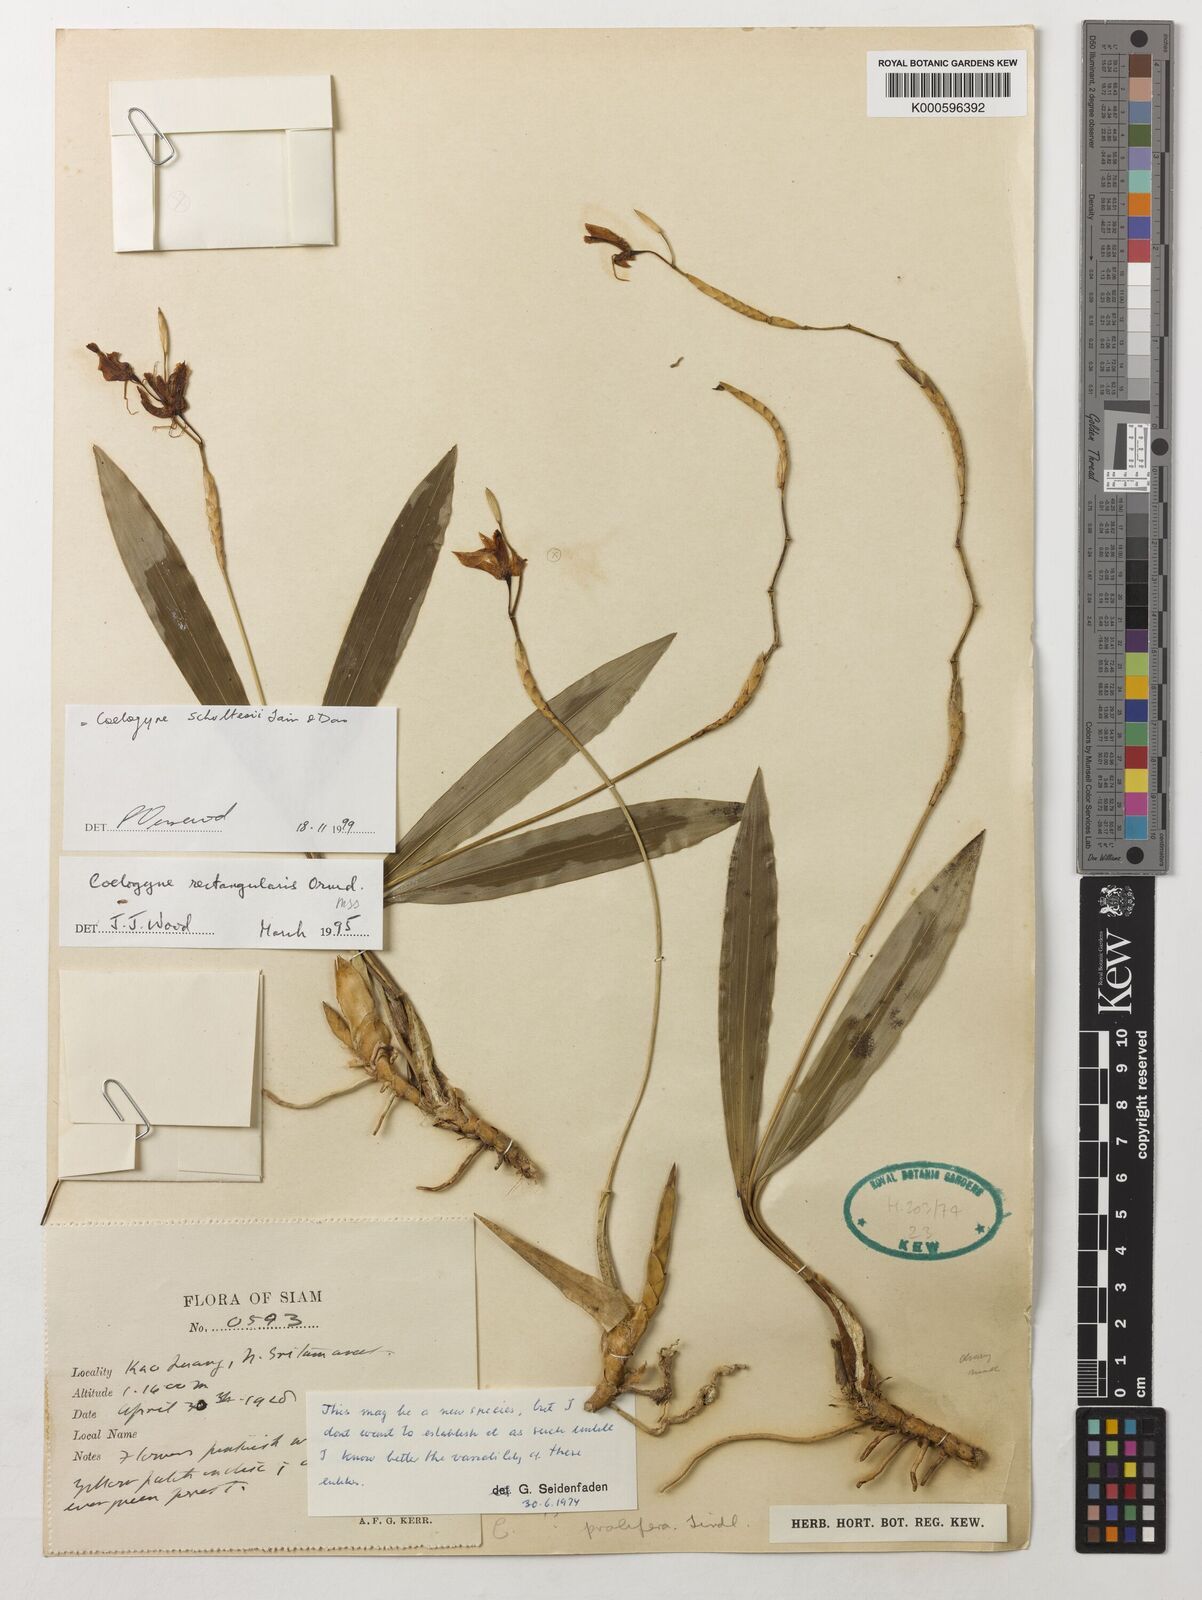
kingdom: Plantae
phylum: Tracheophyta
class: Liliopsida
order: Asparagales
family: Orchidaceae
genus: Coelogyne
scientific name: Coelogyne
